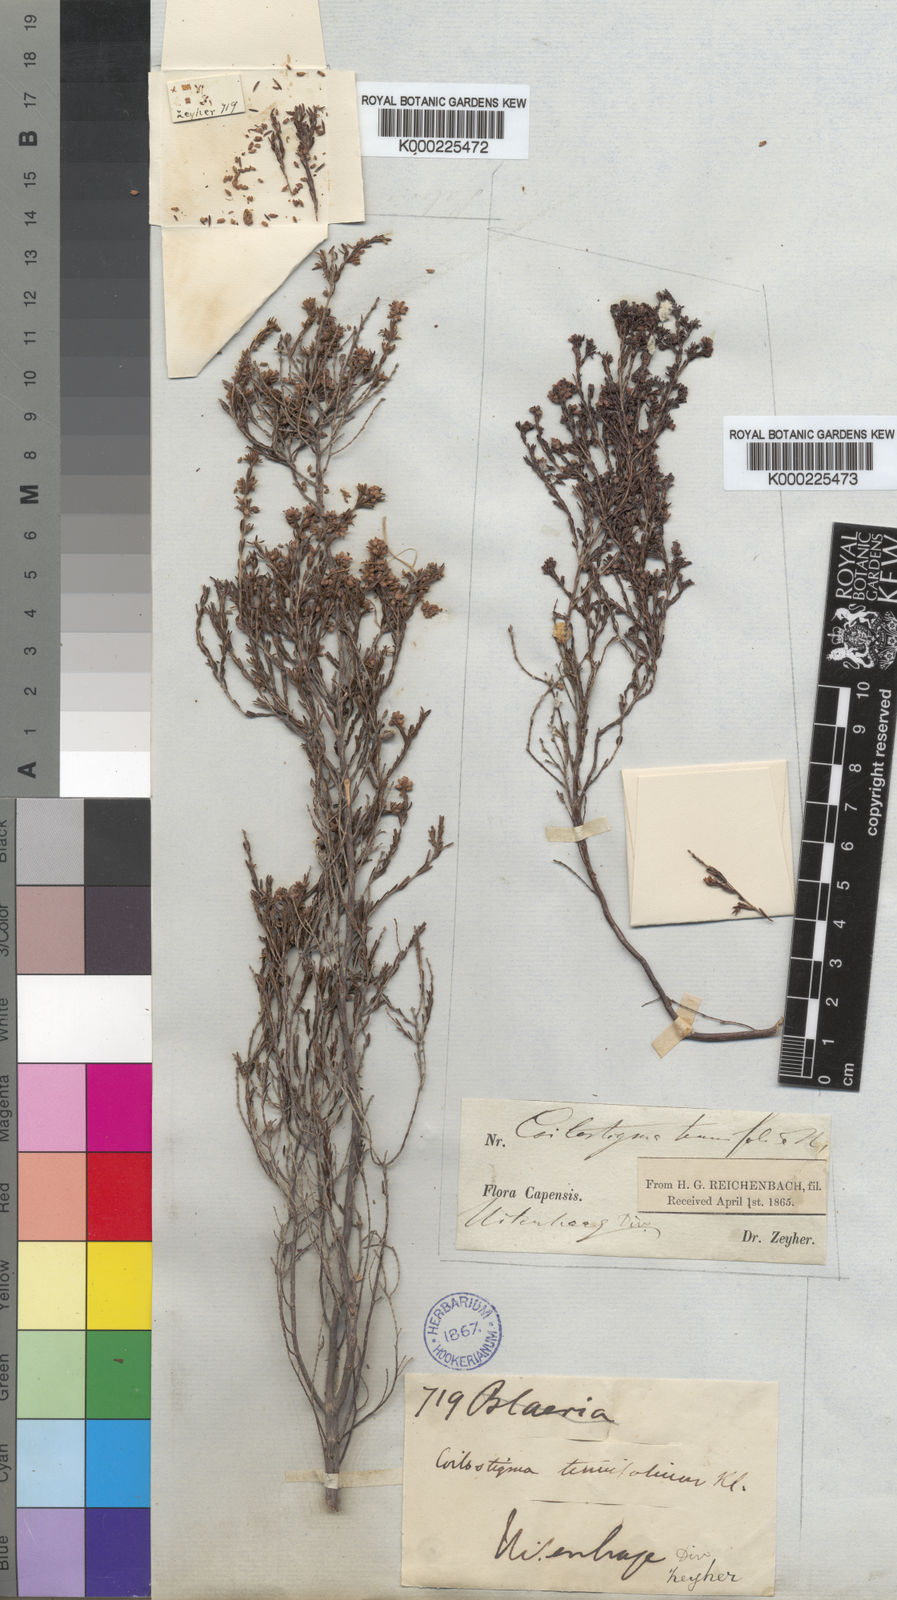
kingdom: Plantae
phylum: Tracheophyta
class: Magnoliopsida
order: Ericales
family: Ericaceae
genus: Erica
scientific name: Erica zeyheriana
